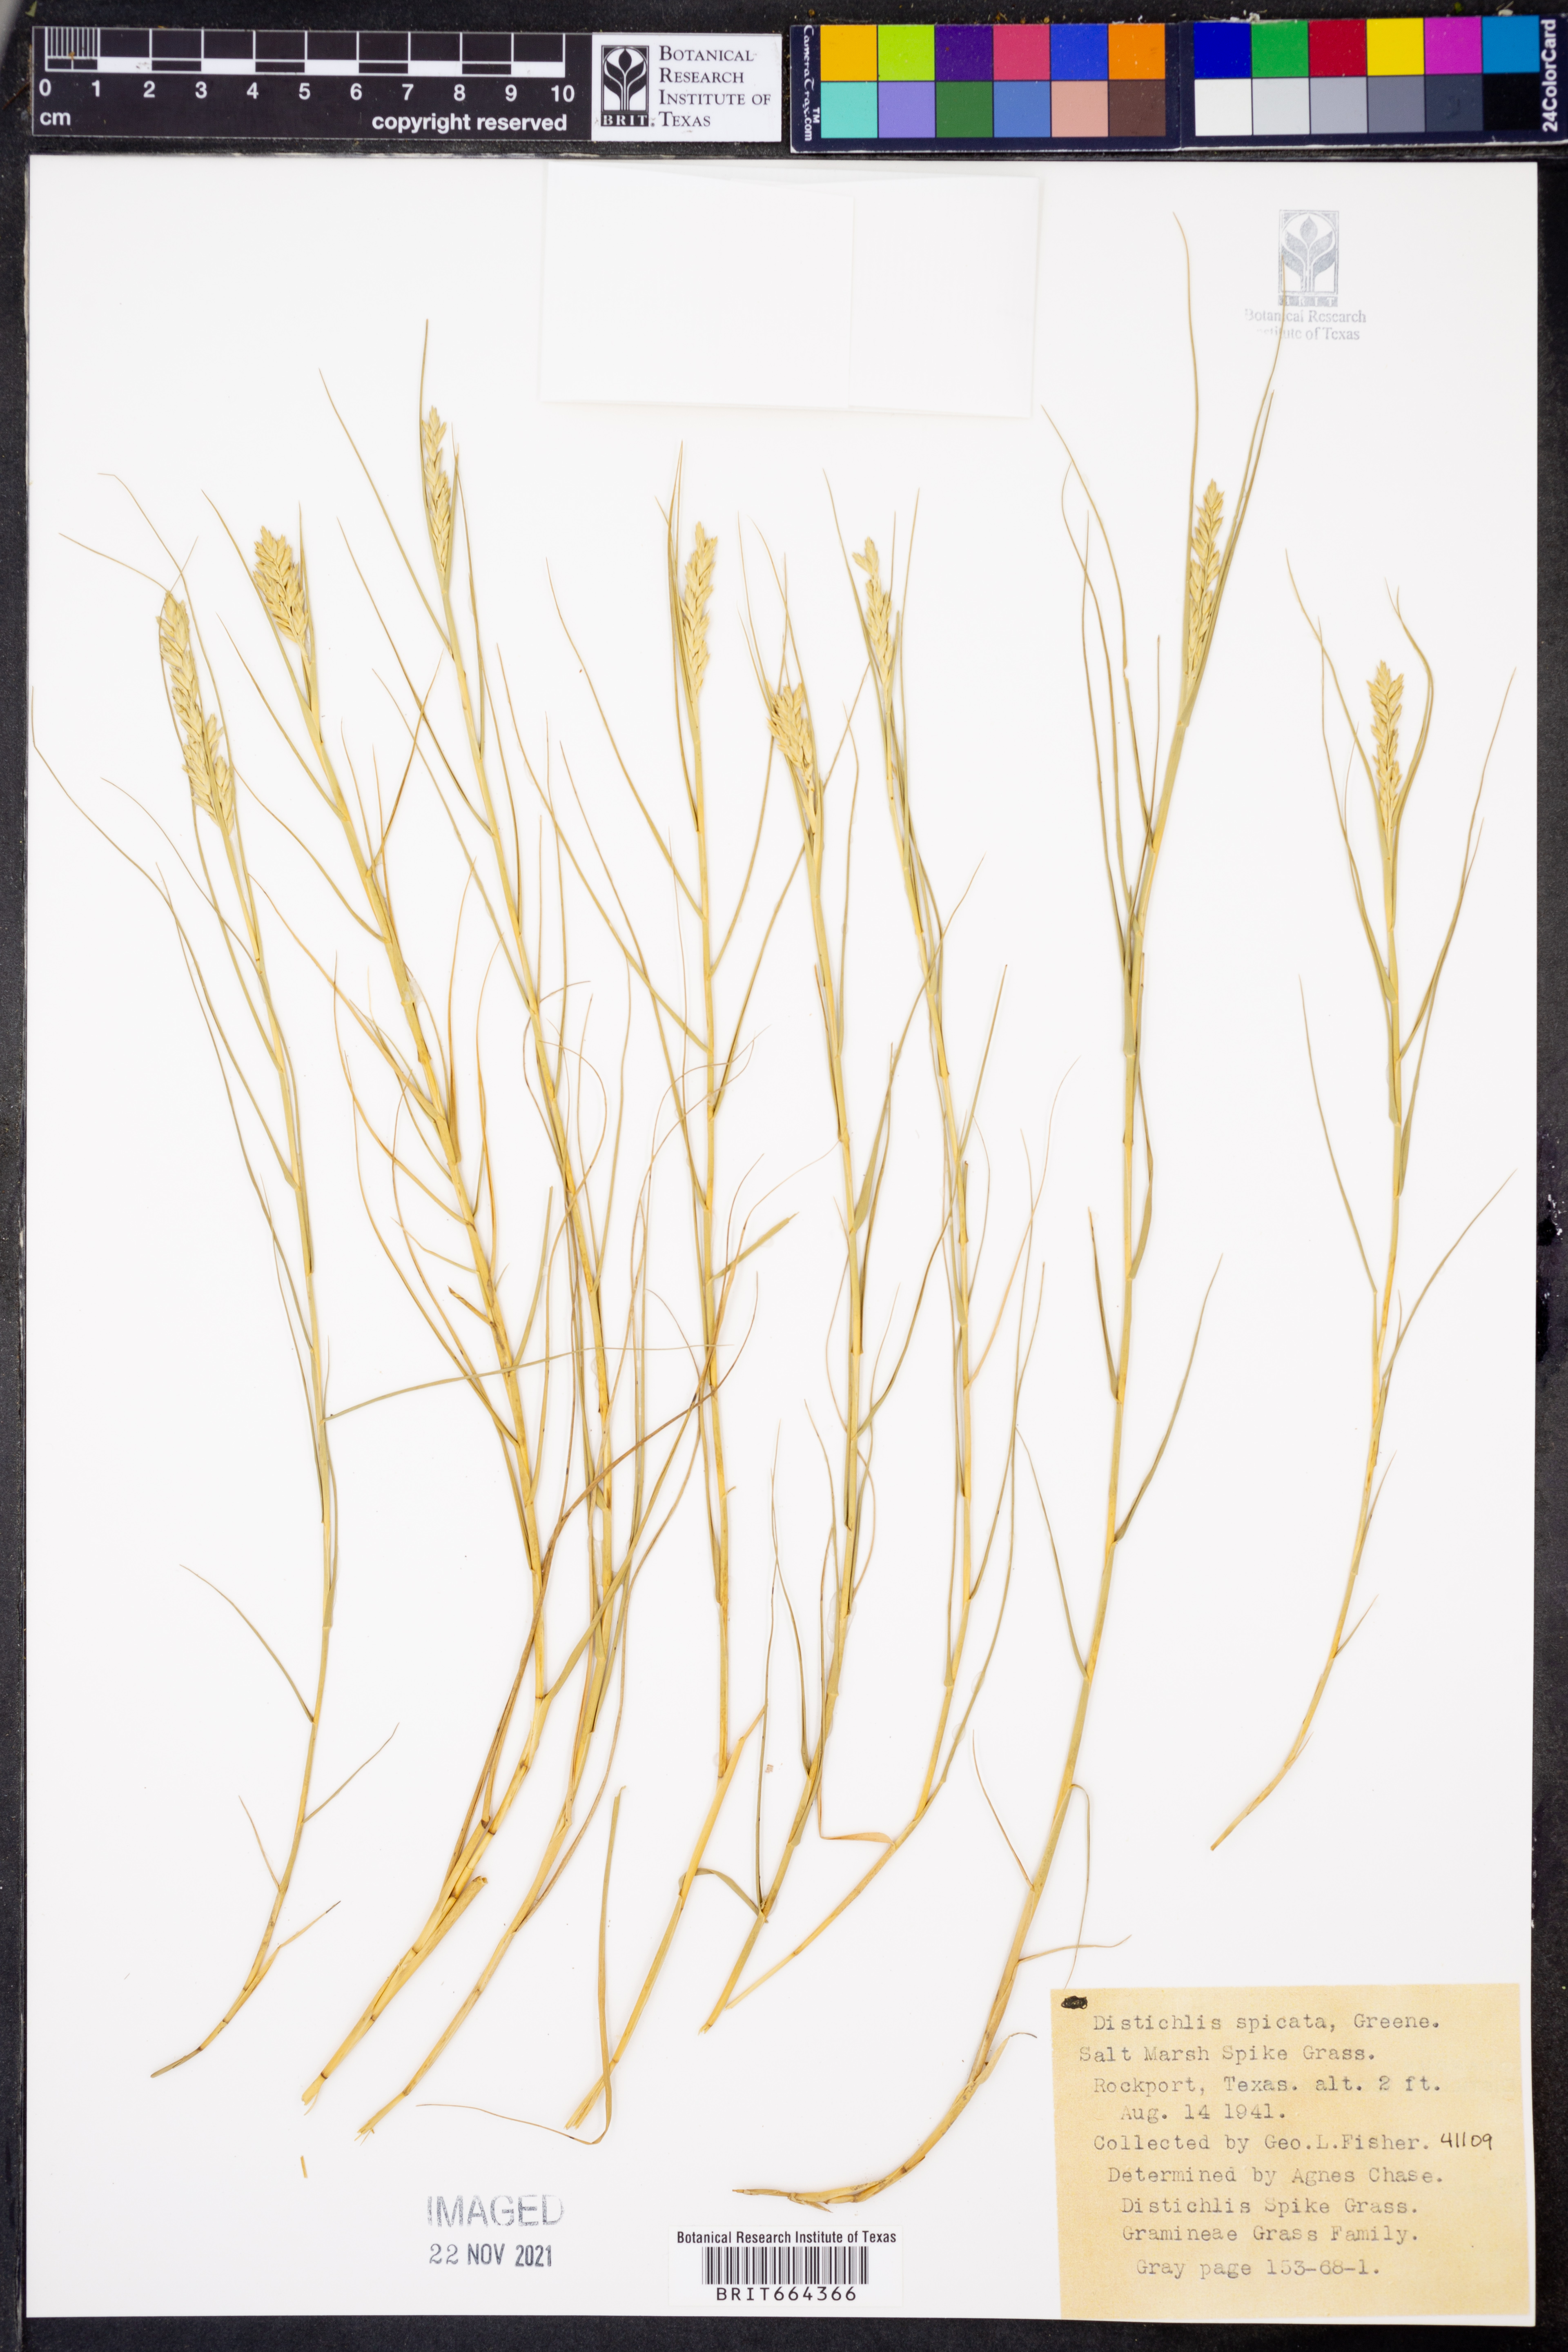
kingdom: Plantae
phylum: Tracheophyta
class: Liliopsida
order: Poales
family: Poaceae
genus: Distichlis
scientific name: Distichlis spicata
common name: Saltgrass
